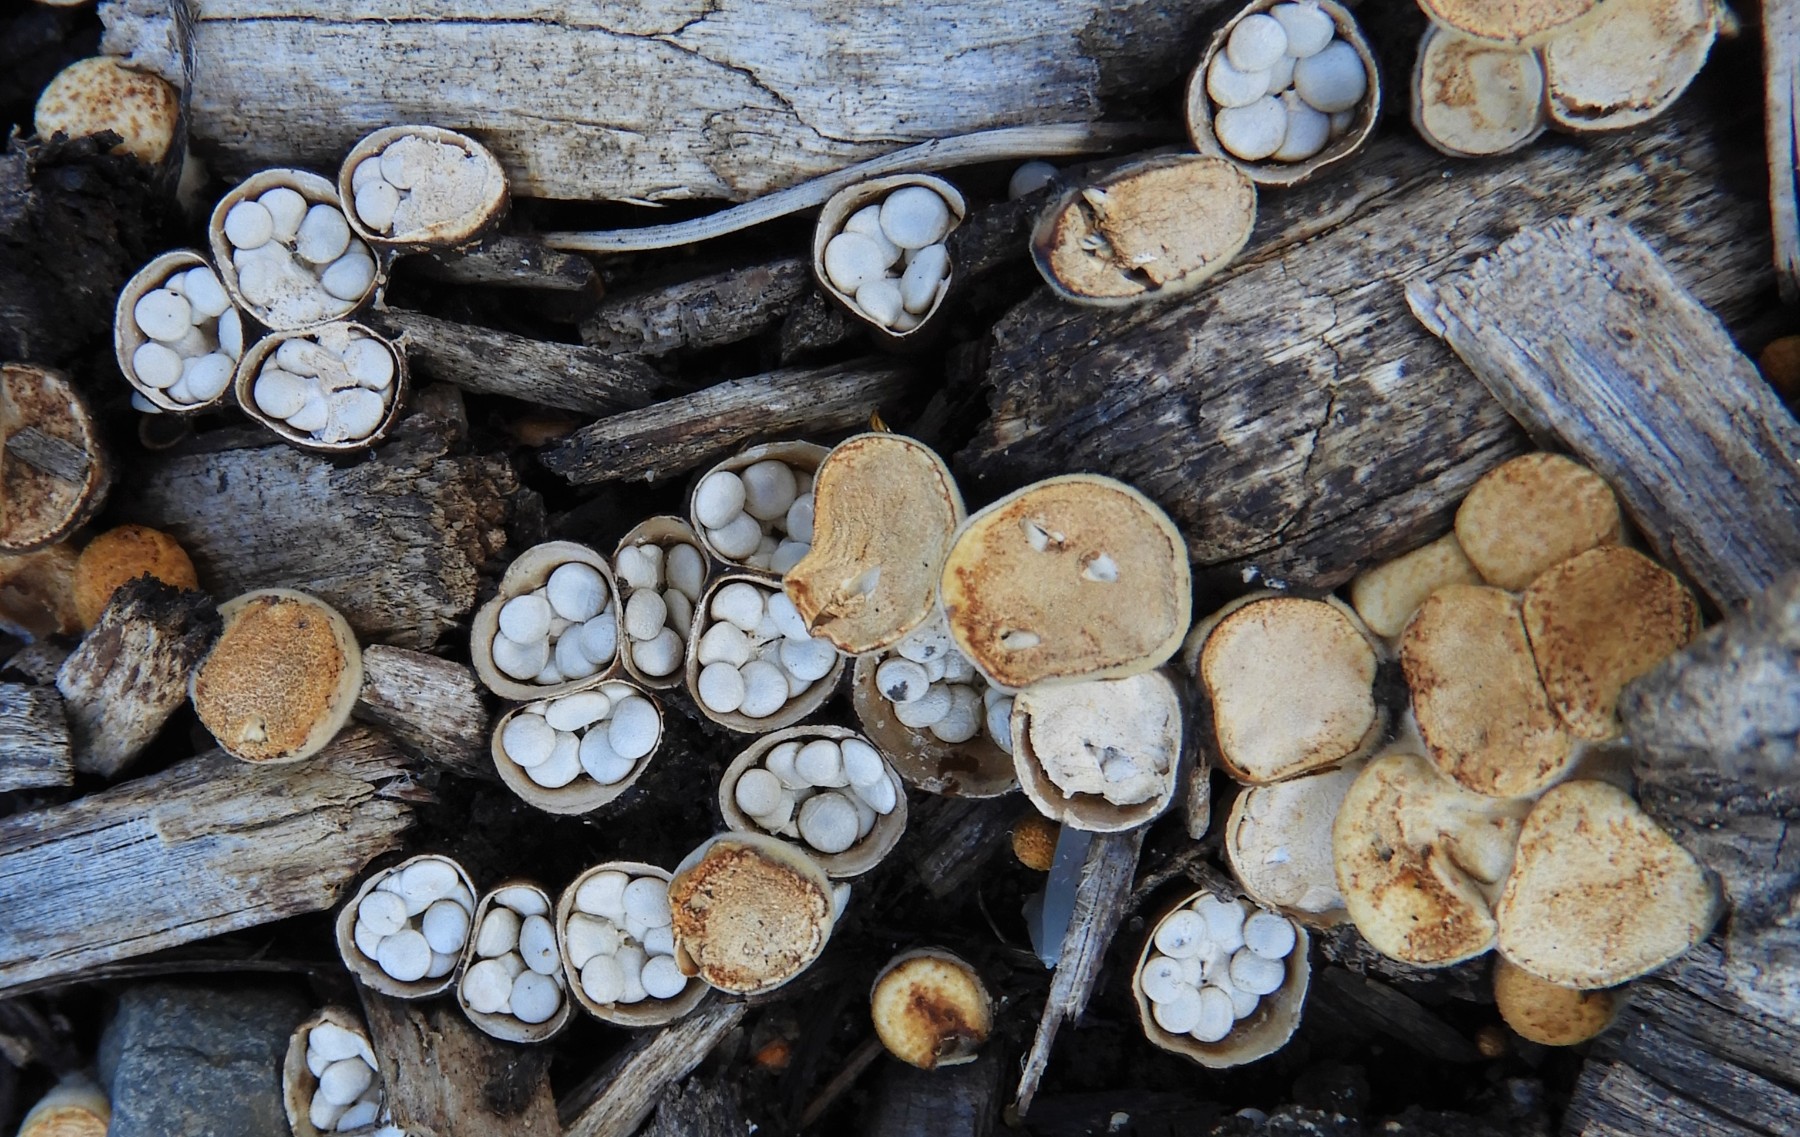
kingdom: Fungi
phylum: Basidiomycota
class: Agaricomycetes
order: Agaricales
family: Nidulariaceae
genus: Crucibulum
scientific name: Crucibulum crucibuliforme
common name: krukkesvamp
